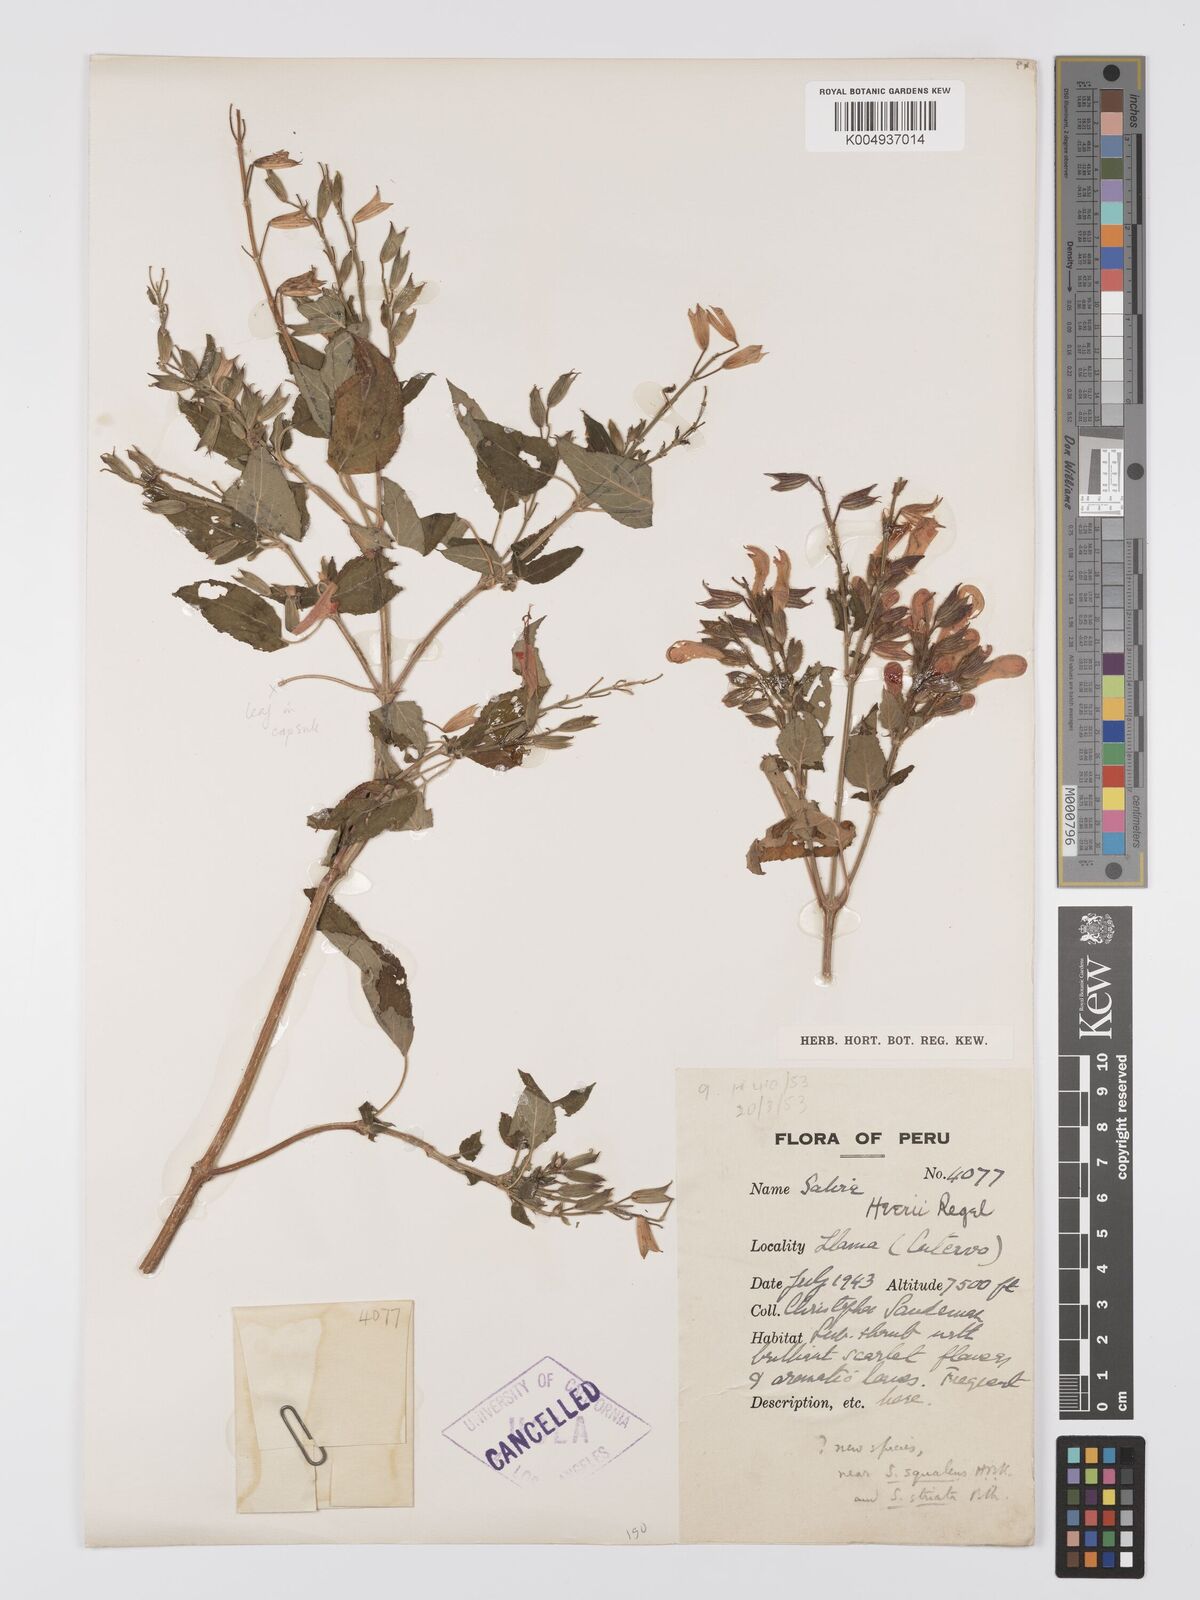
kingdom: Plantae
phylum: Tracheophyta
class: Magnoliopsida
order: Lamiales
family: Lamiaceae
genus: Salvia
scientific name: Salvia ayavazensis
